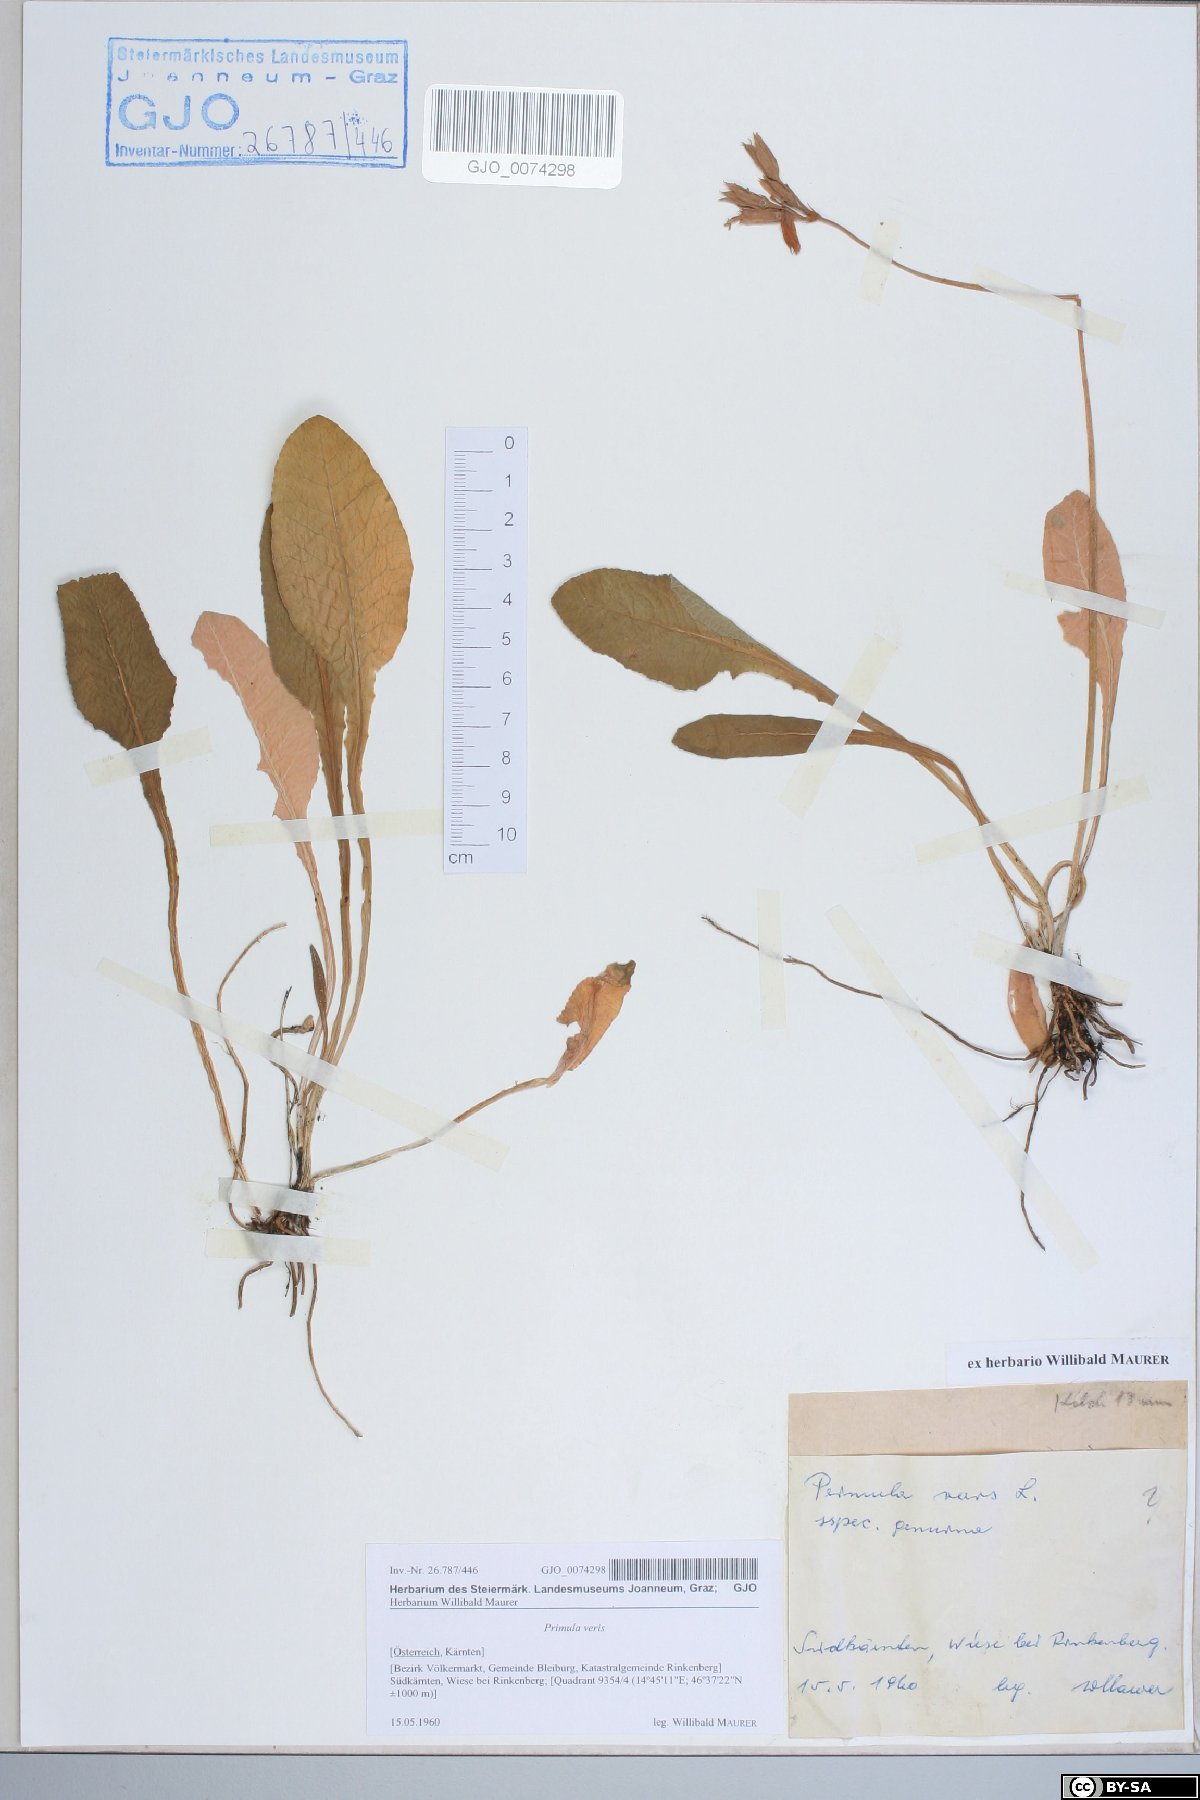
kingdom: Plantae
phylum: Tracheophyta
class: Magnoliopsida
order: Ericales
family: Primulaceae
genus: Primula
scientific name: Primula veris
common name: Cowslip
